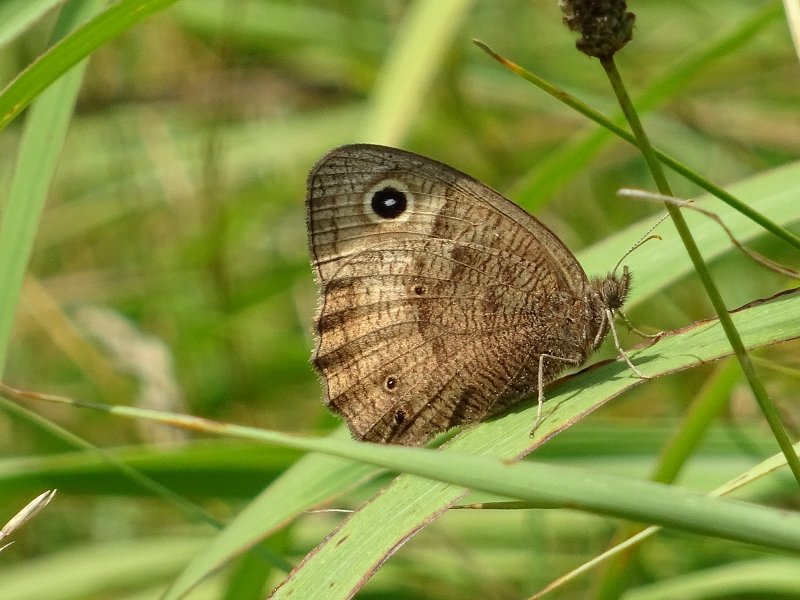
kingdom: Animalia
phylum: Arthropoda
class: Insecta
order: Lepidoptera
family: Nymphalidae
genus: Cercyonis
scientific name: Cercyonis pegala
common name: Common Wood-Nymph
